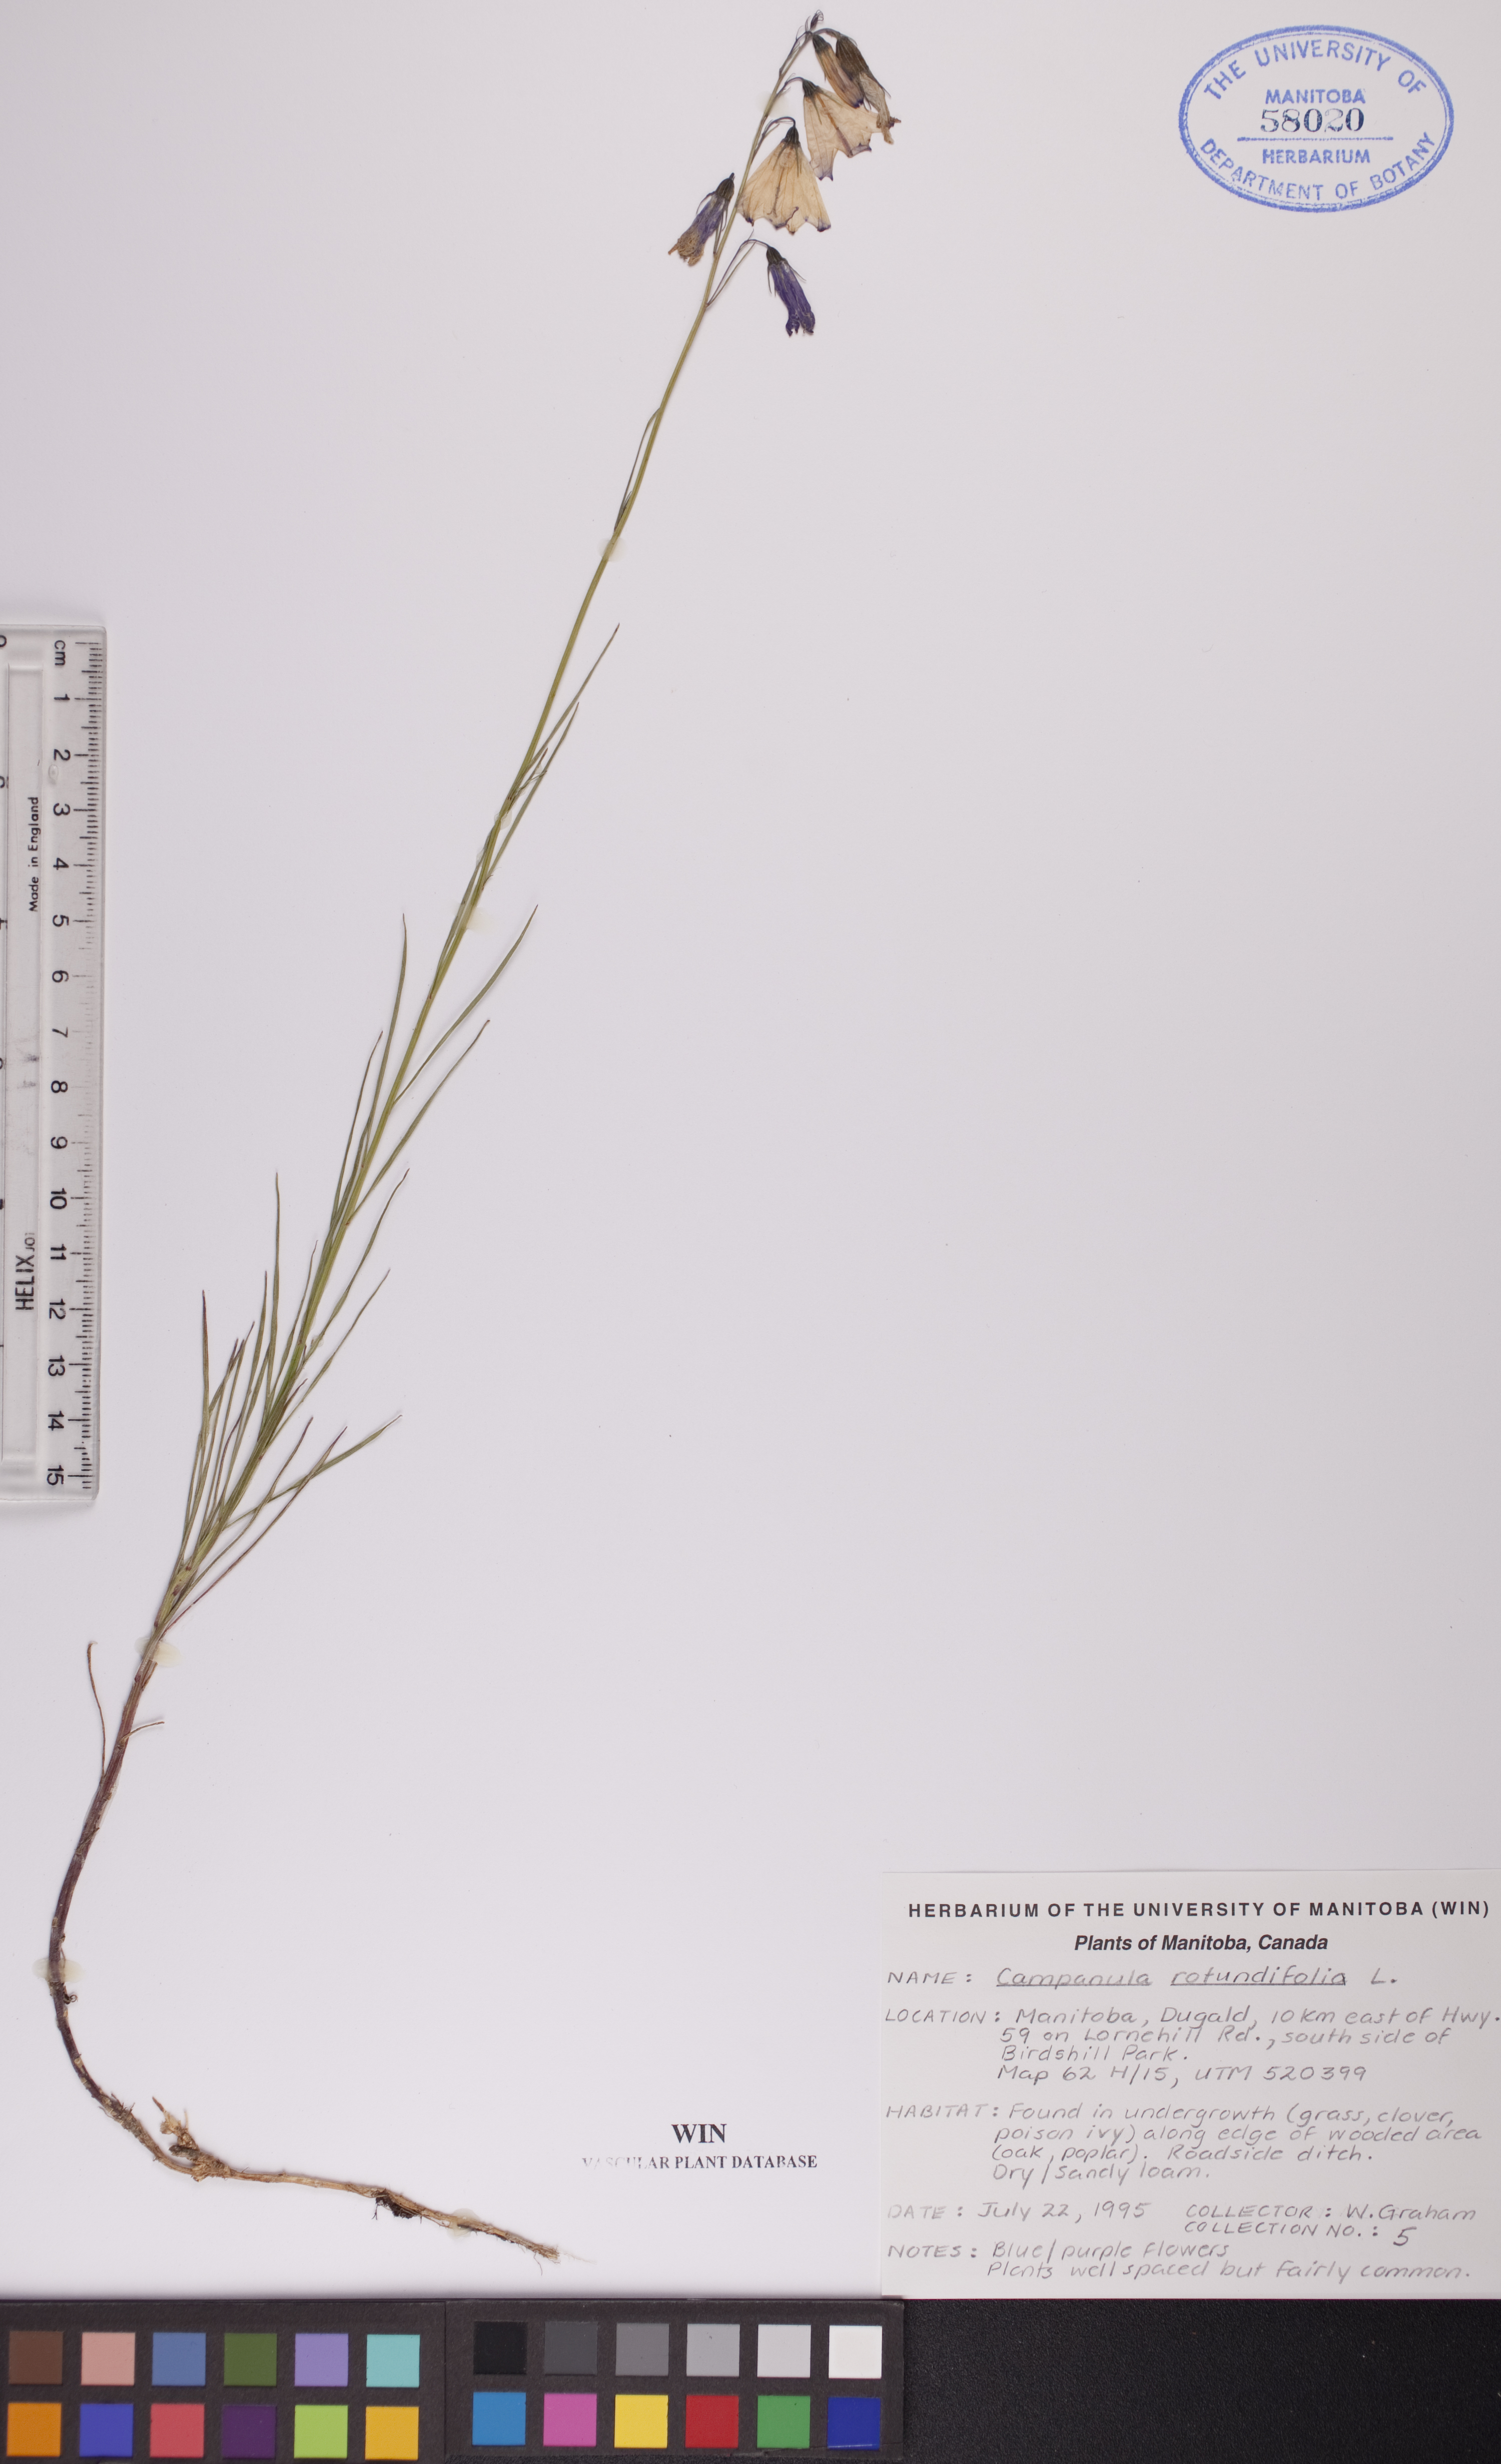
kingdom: Plantae
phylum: Tracheophyta
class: Magnoliopsida
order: Asterales
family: Campanulaceae
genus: Campanula
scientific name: Campanula rotundifolia
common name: Harebell
